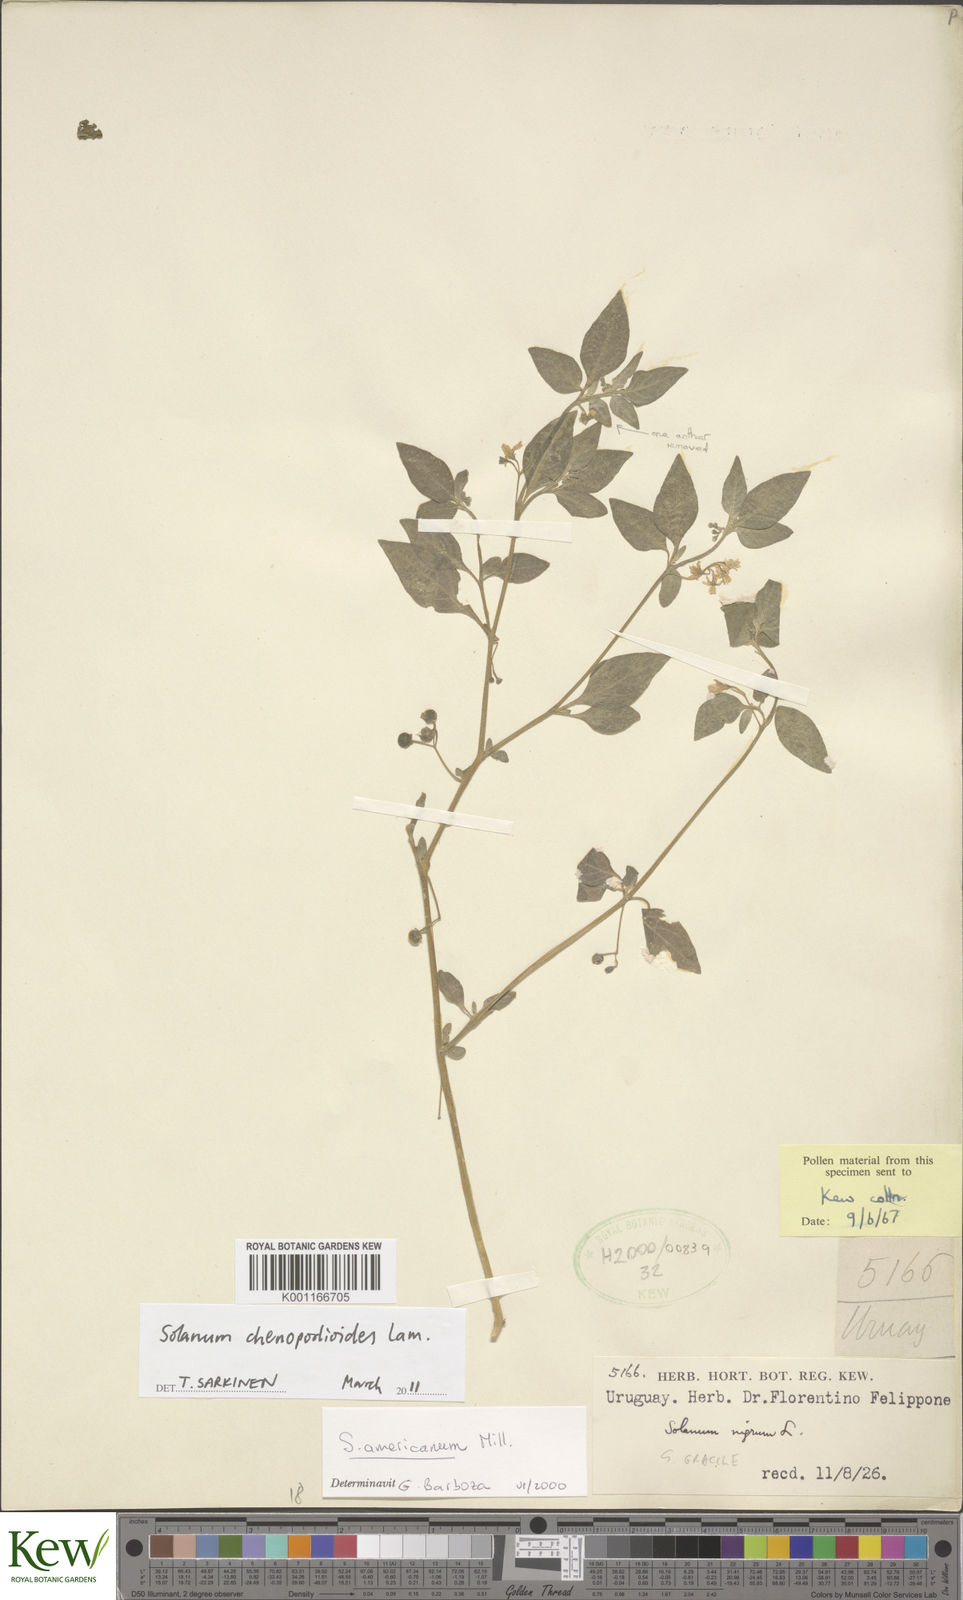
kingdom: Plantae
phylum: Tracheophyta
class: Magnoliopsida
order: Solanales
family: Solanaceae
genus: Solanum
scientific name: Solanum chenopodioides
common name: Tall nightshade
